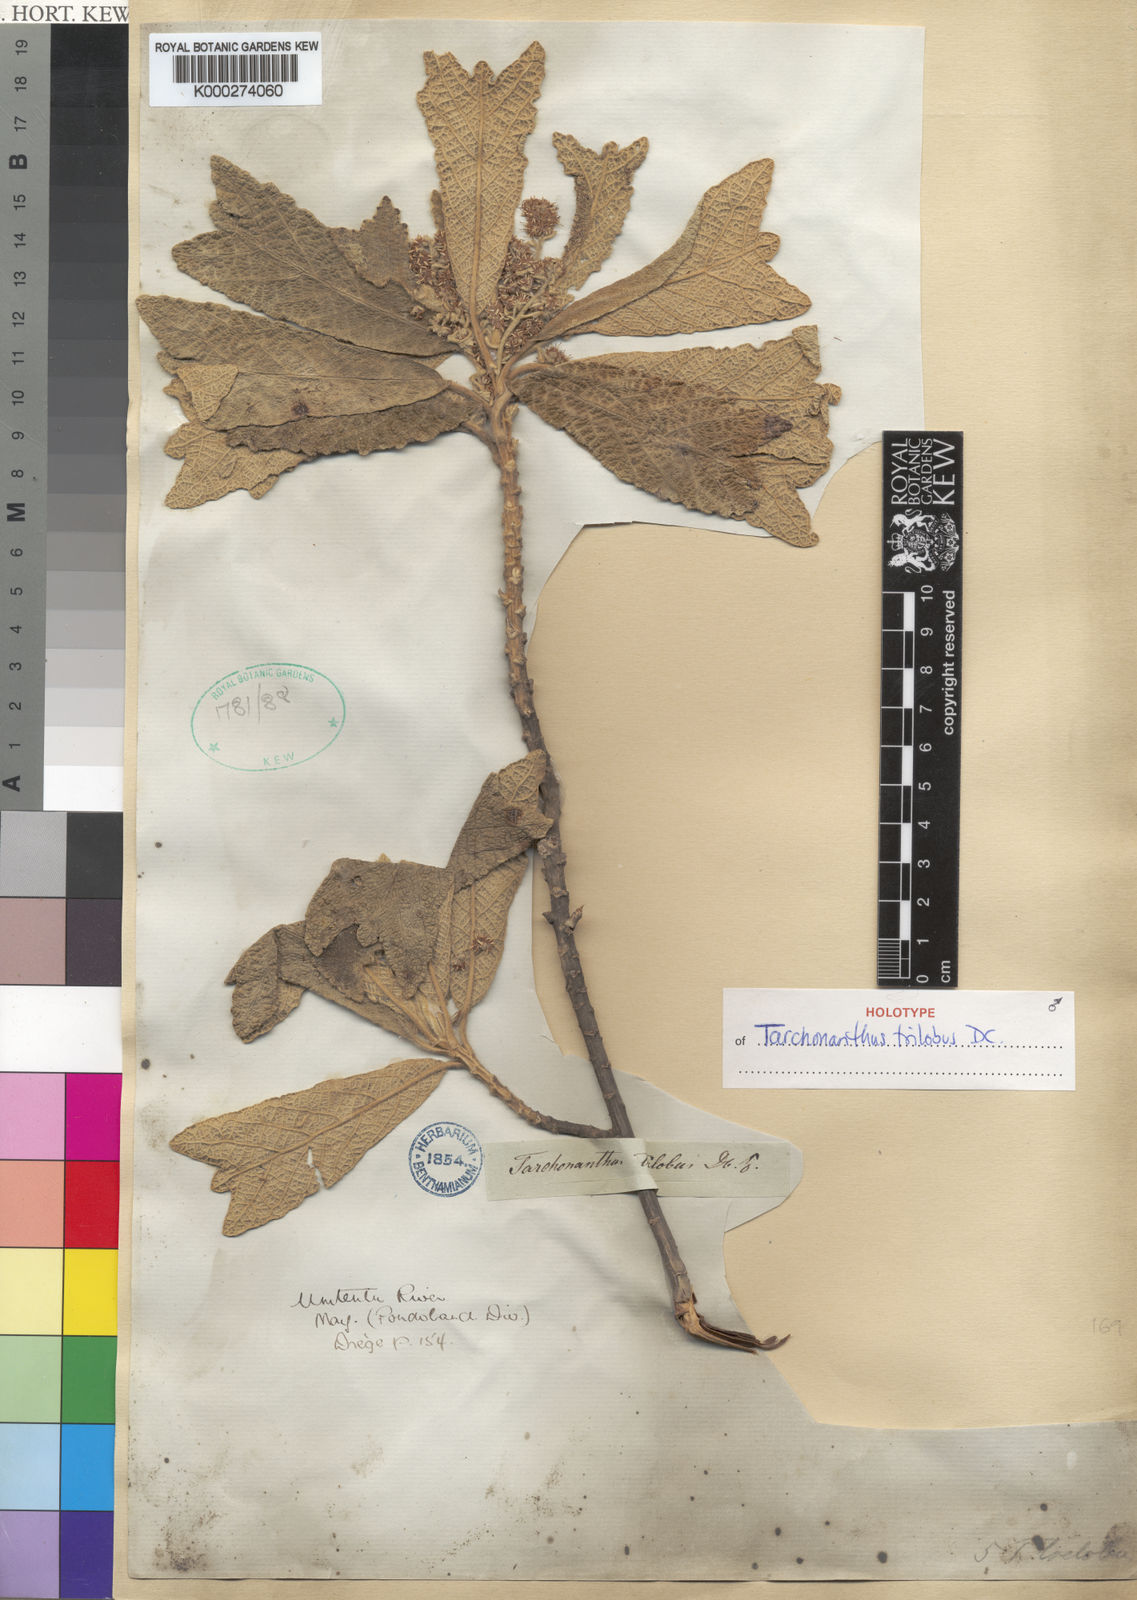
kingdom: Plantae
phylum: Tracheophyta
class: Magnoliopsida
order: Asterales
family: Asteraceae
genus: Tarchonanthus
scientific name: Tarchonanthus trilobus
